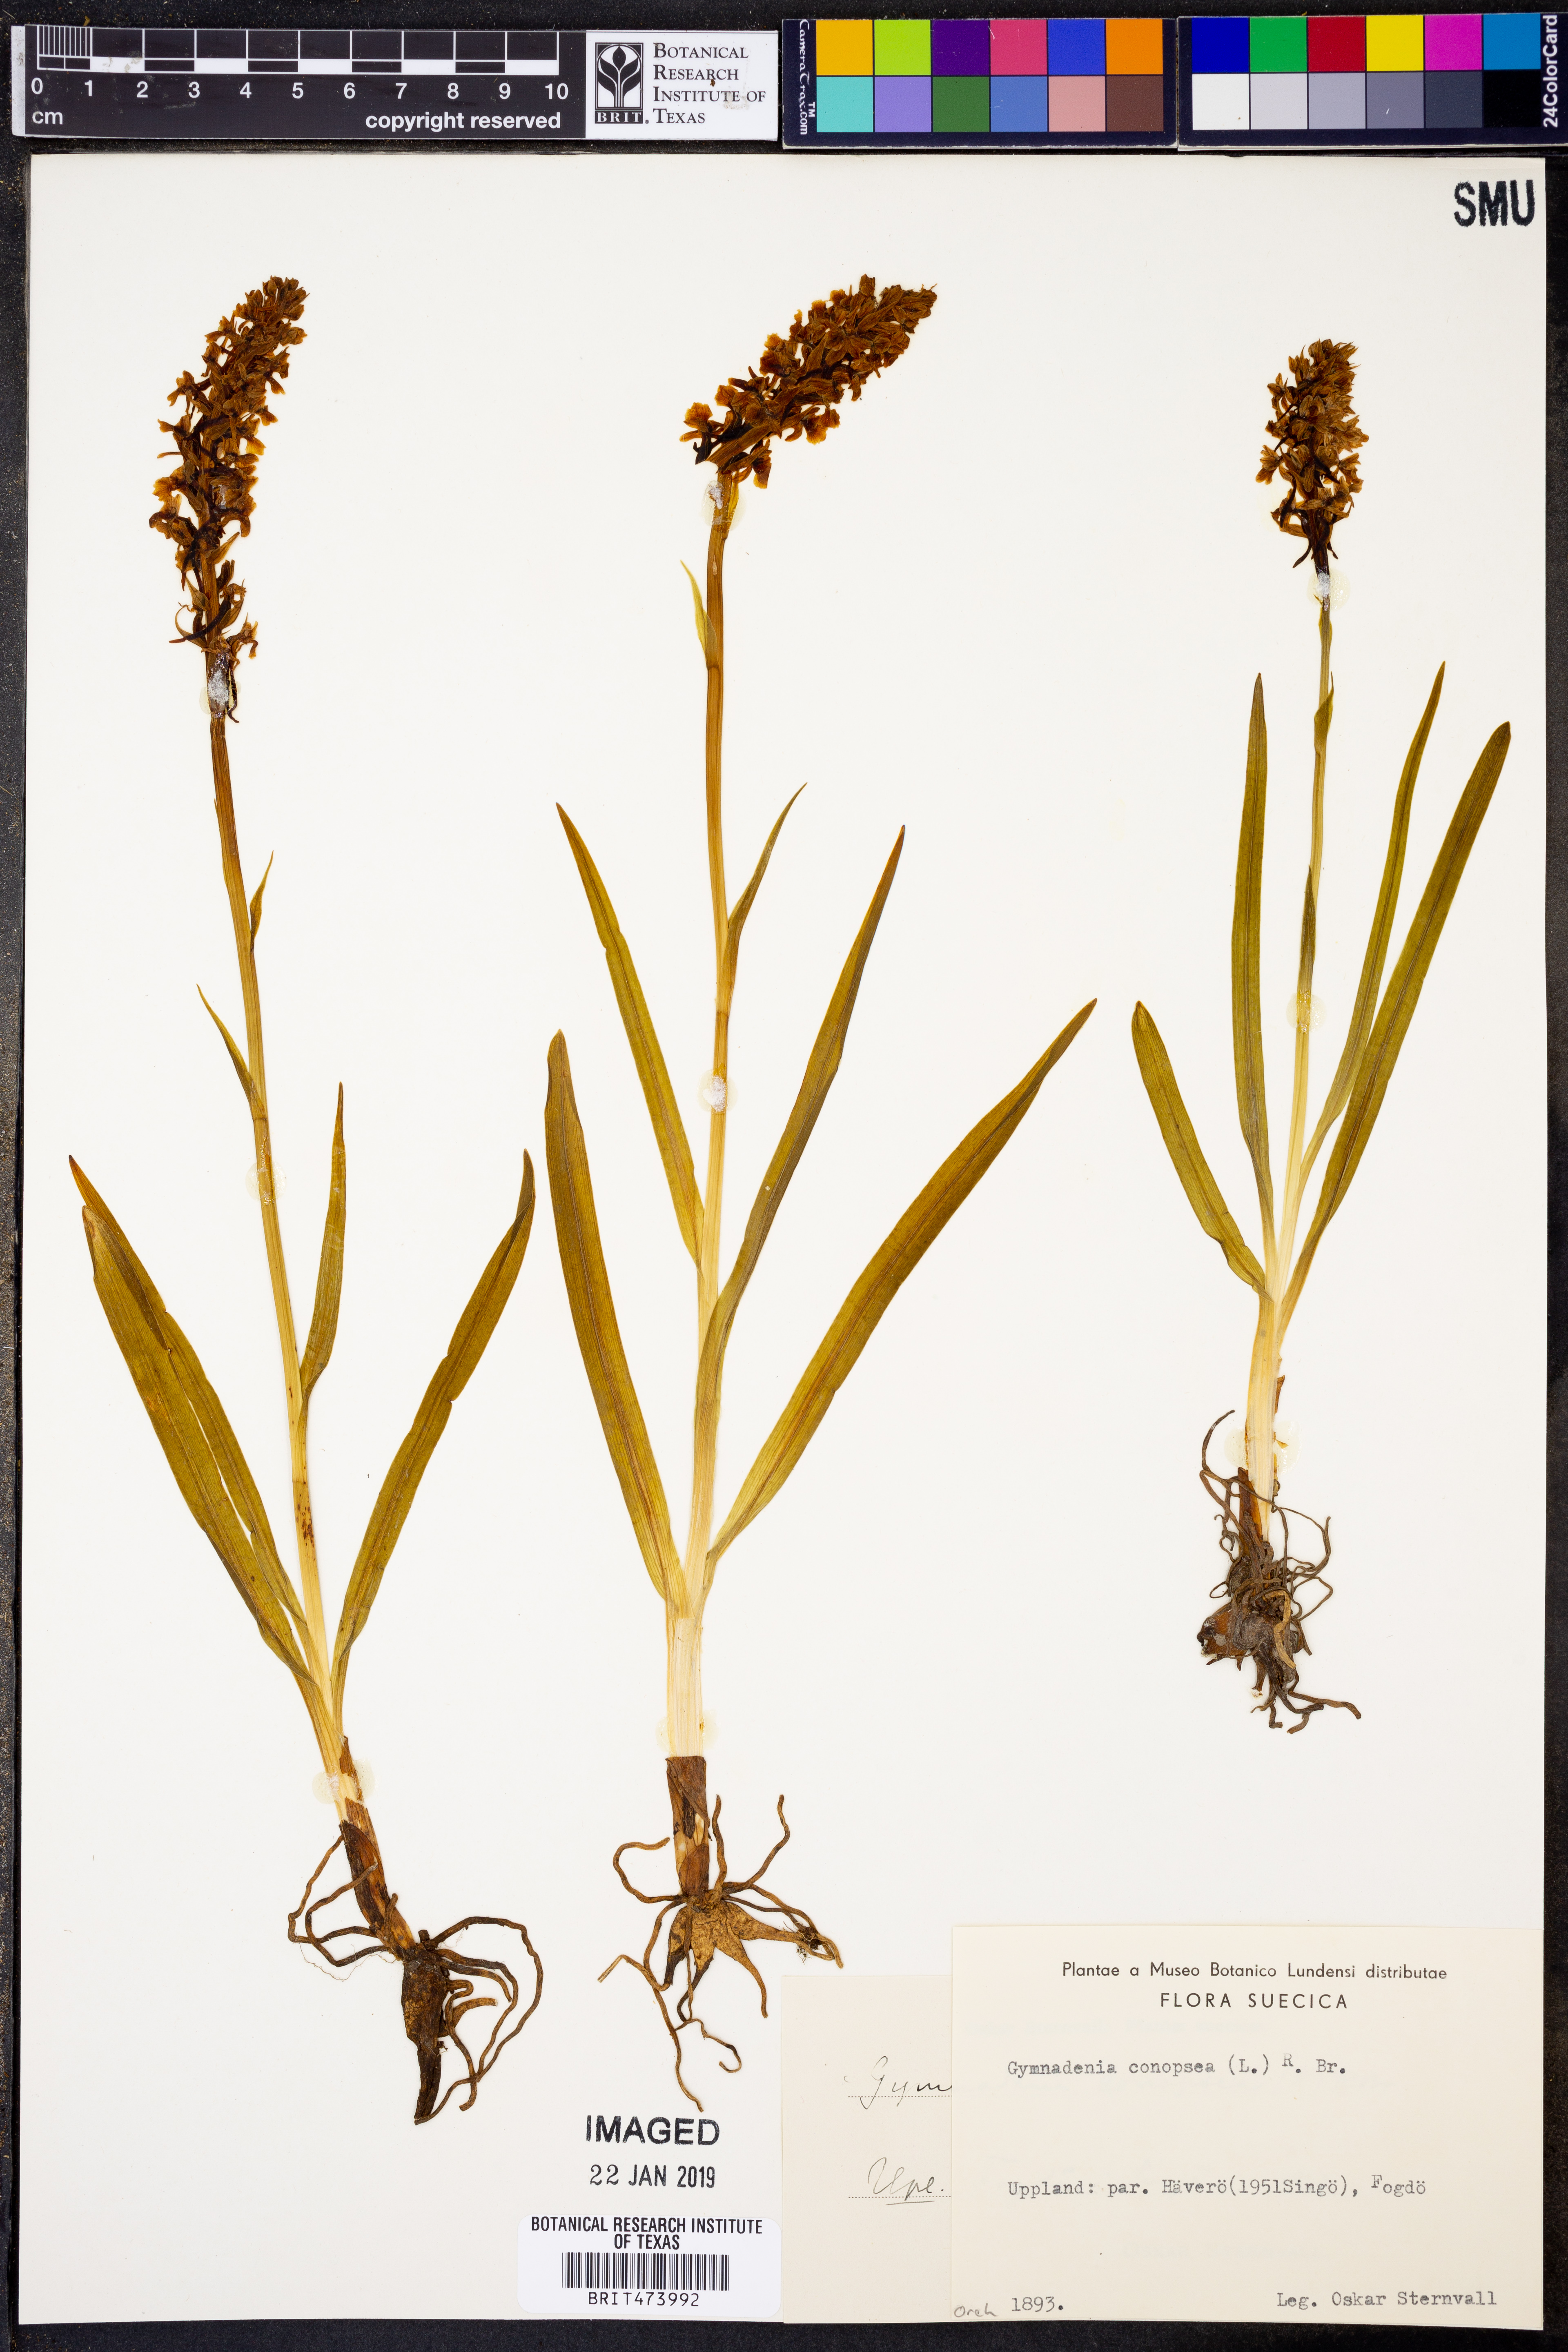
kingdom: Plantae
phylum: Tracheophyta
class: Liliopsida
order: Asparagales
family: Orchidaceae
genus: Gymnadenia
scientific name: Gymnadenia conopsea
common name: Fragrant orchid
